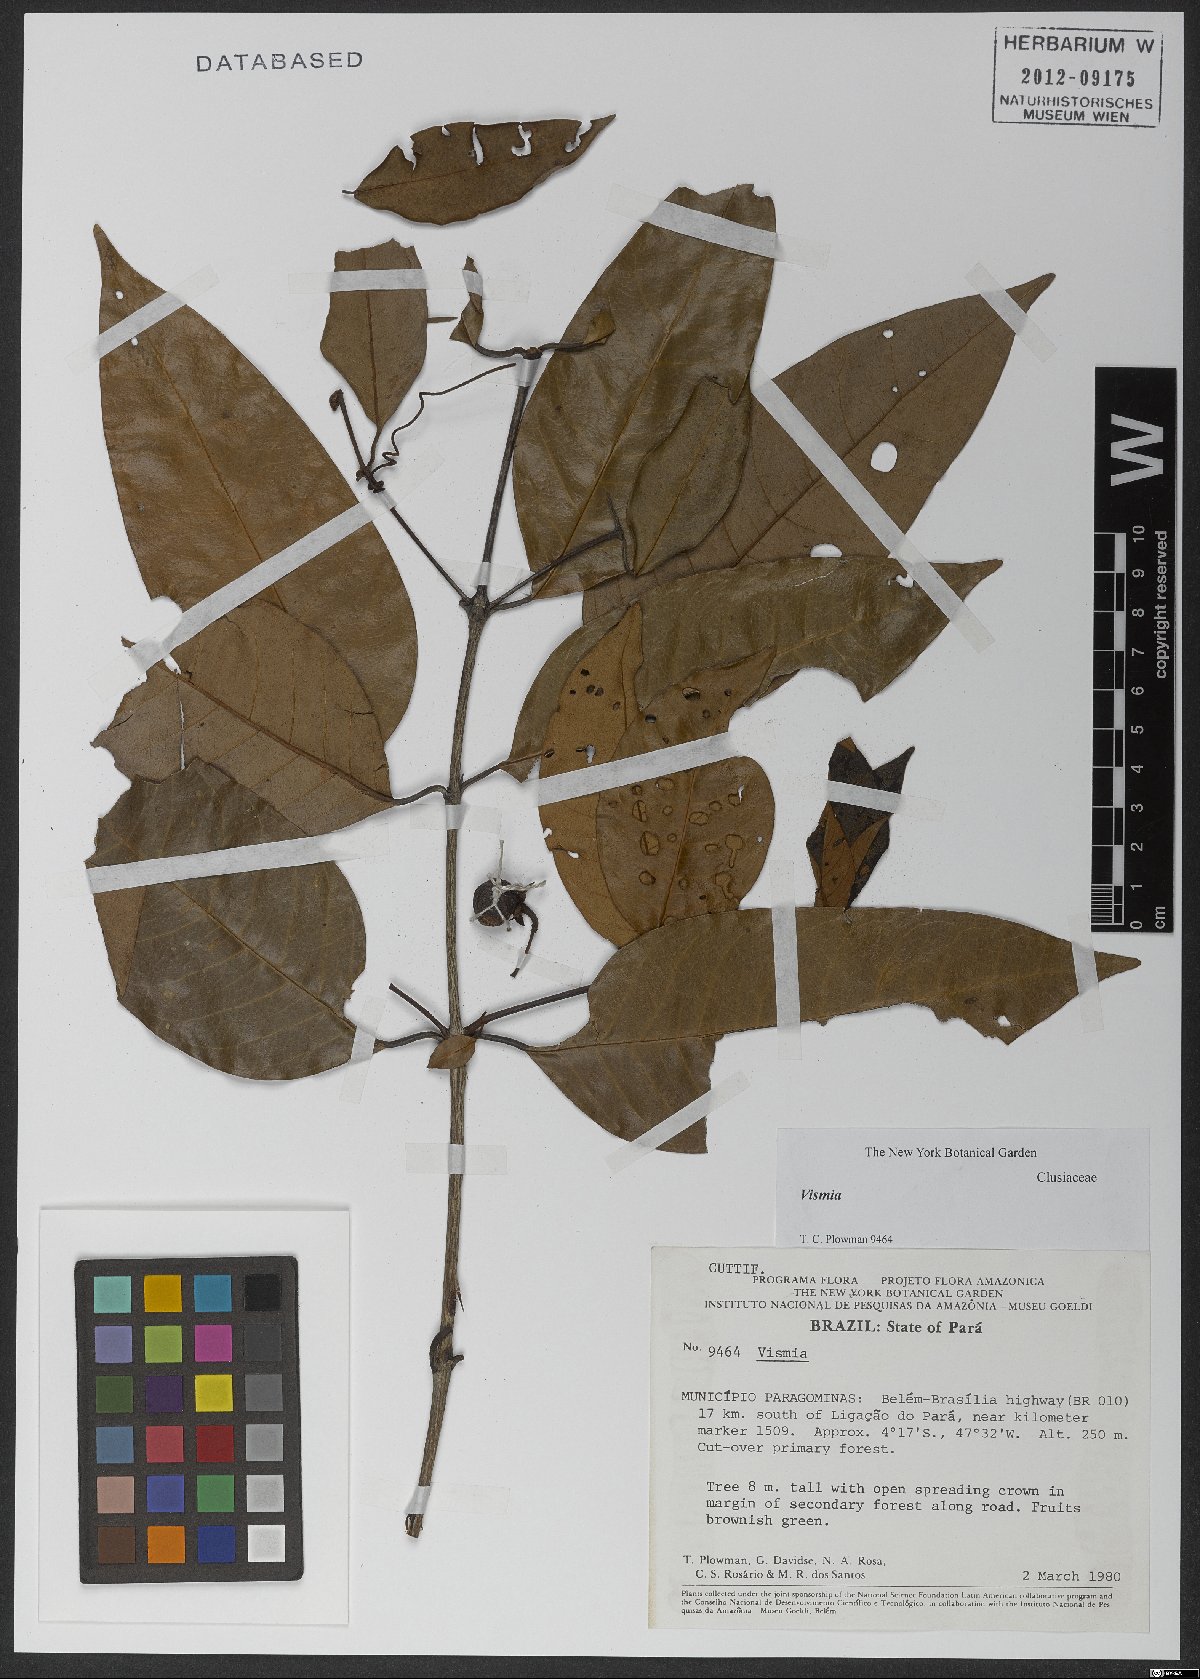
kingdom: Plantae
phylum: Tracheophyta
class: Magnoliopsida
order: Malpighiales
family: Hypericaceae
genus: Vismia
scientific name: Vismia guianensis
